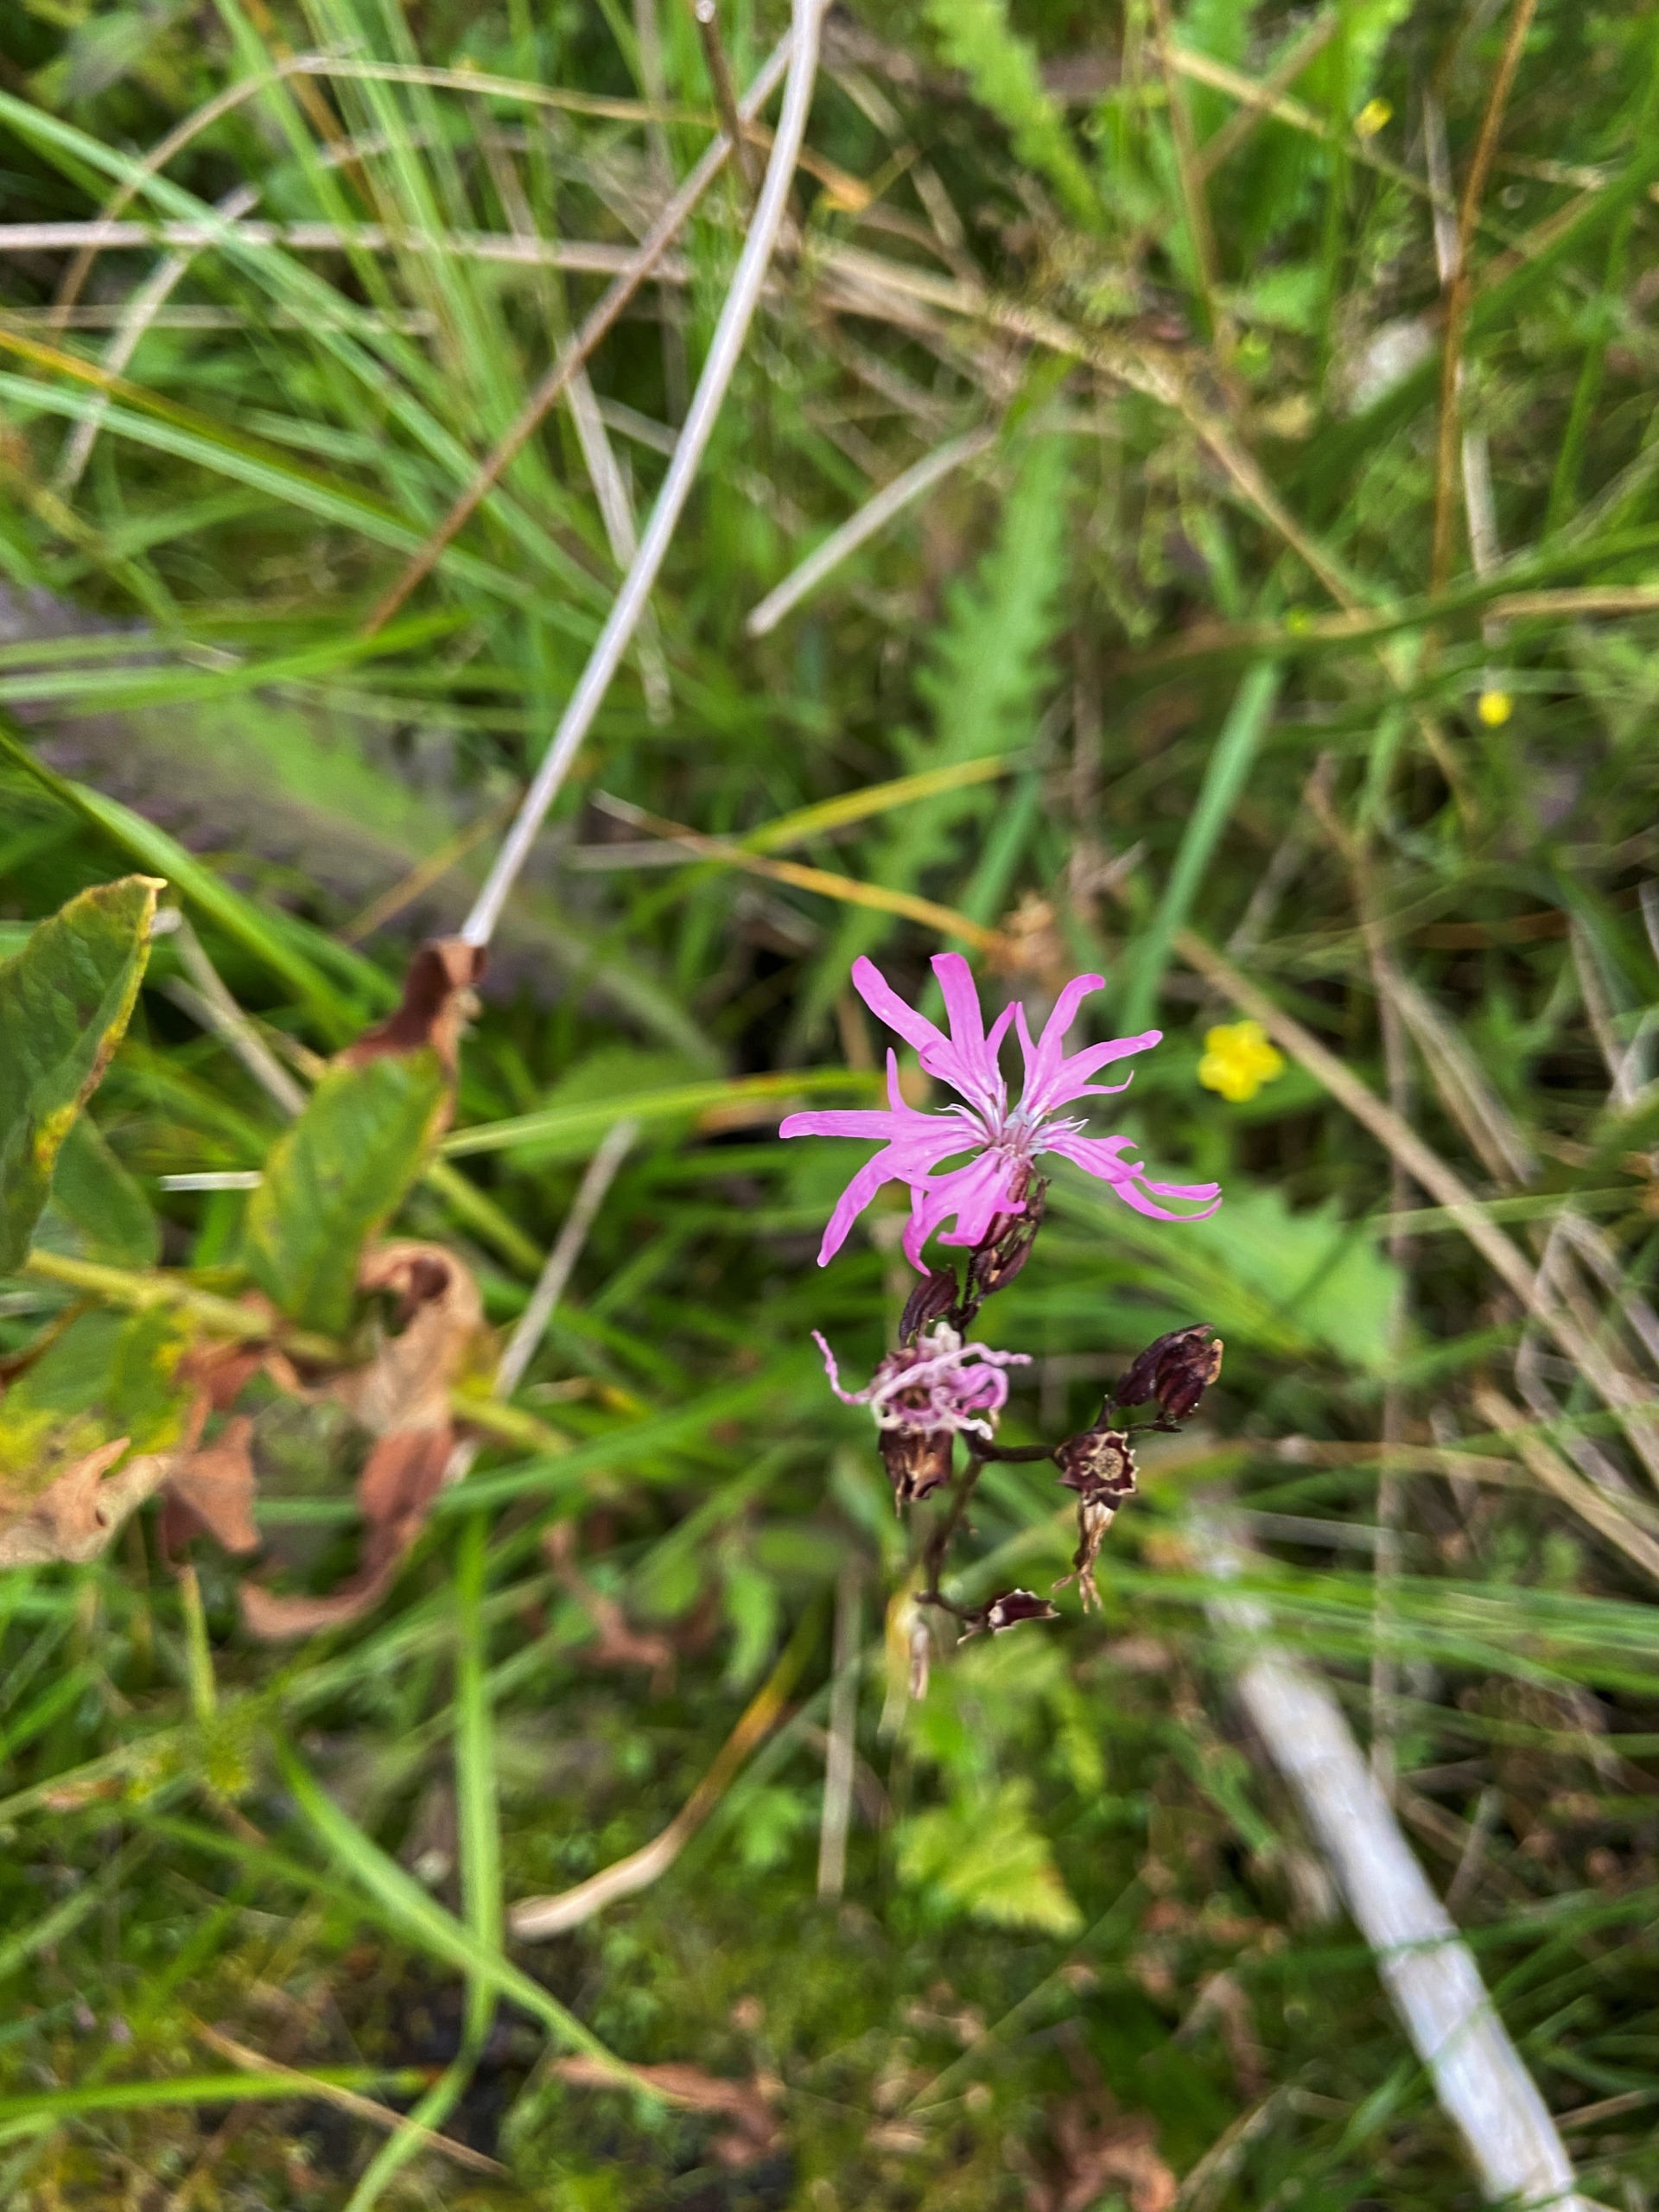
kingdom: Plantae
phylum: Tracheophyta
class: Magnoliopsida
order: Caryophyllales
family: Caryophyllaceae
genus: Silene
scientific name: Silene flos-cuculi
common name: Trævlekrone
